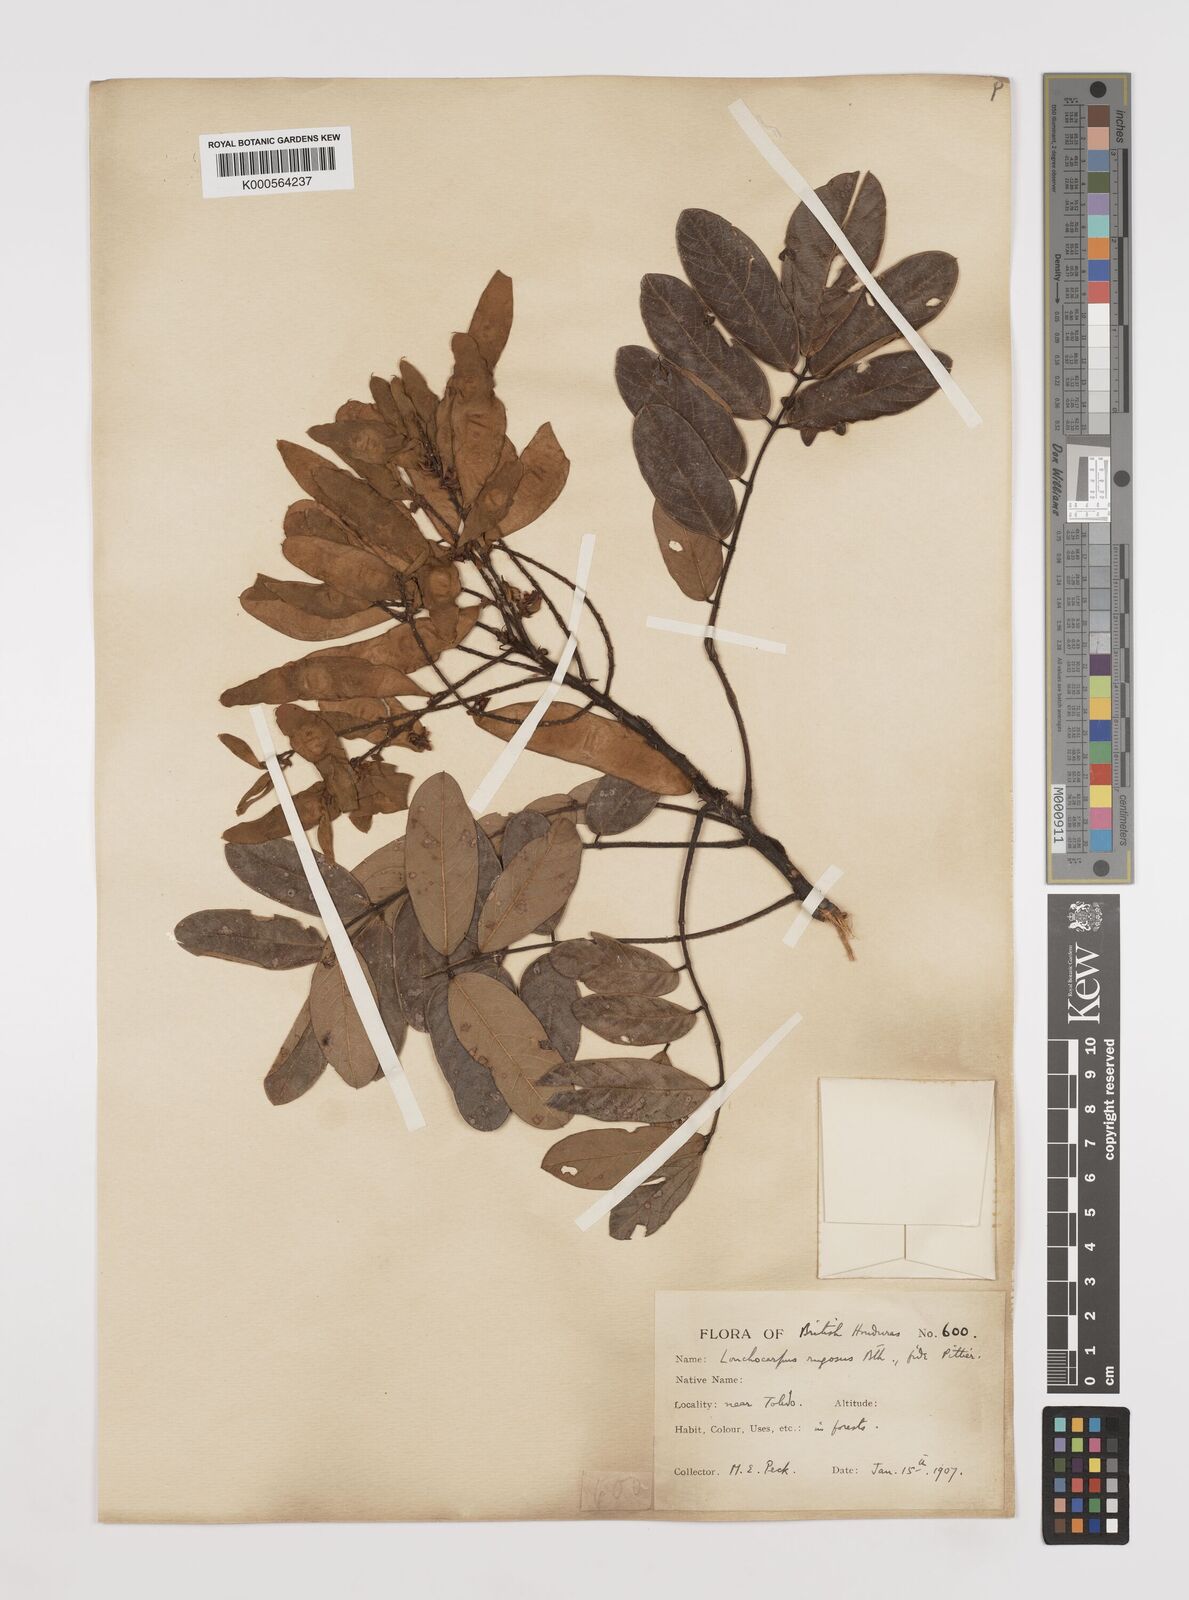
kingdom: Plantae
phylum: Tracheophyta
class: Magnoliopsida
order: Fabales
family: Fabaceae
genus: Lonchocarpus
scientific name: Lonchocarpus rugosus
